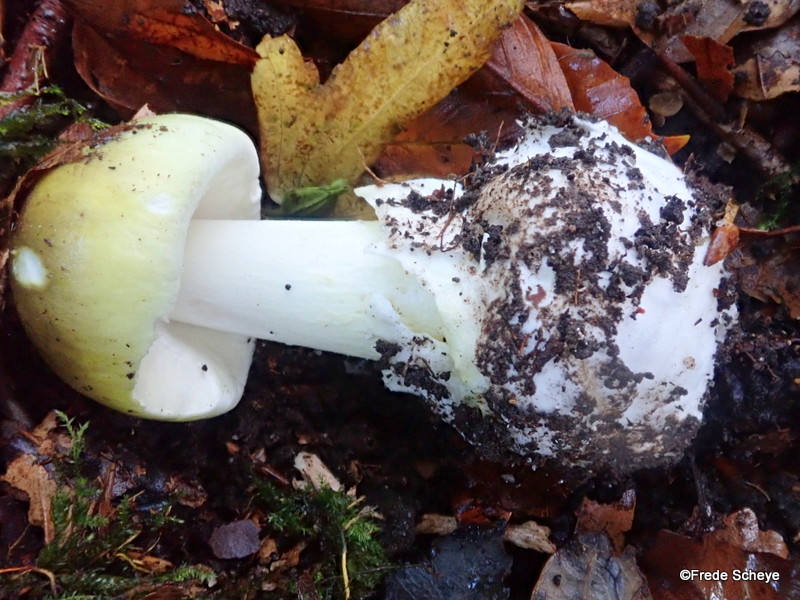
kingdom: Fungi
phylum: Basidiomycota
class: Agaricomycetes
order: Agaricales
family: Amanitaceae
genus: Amanita
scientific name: Amanita phalloides
